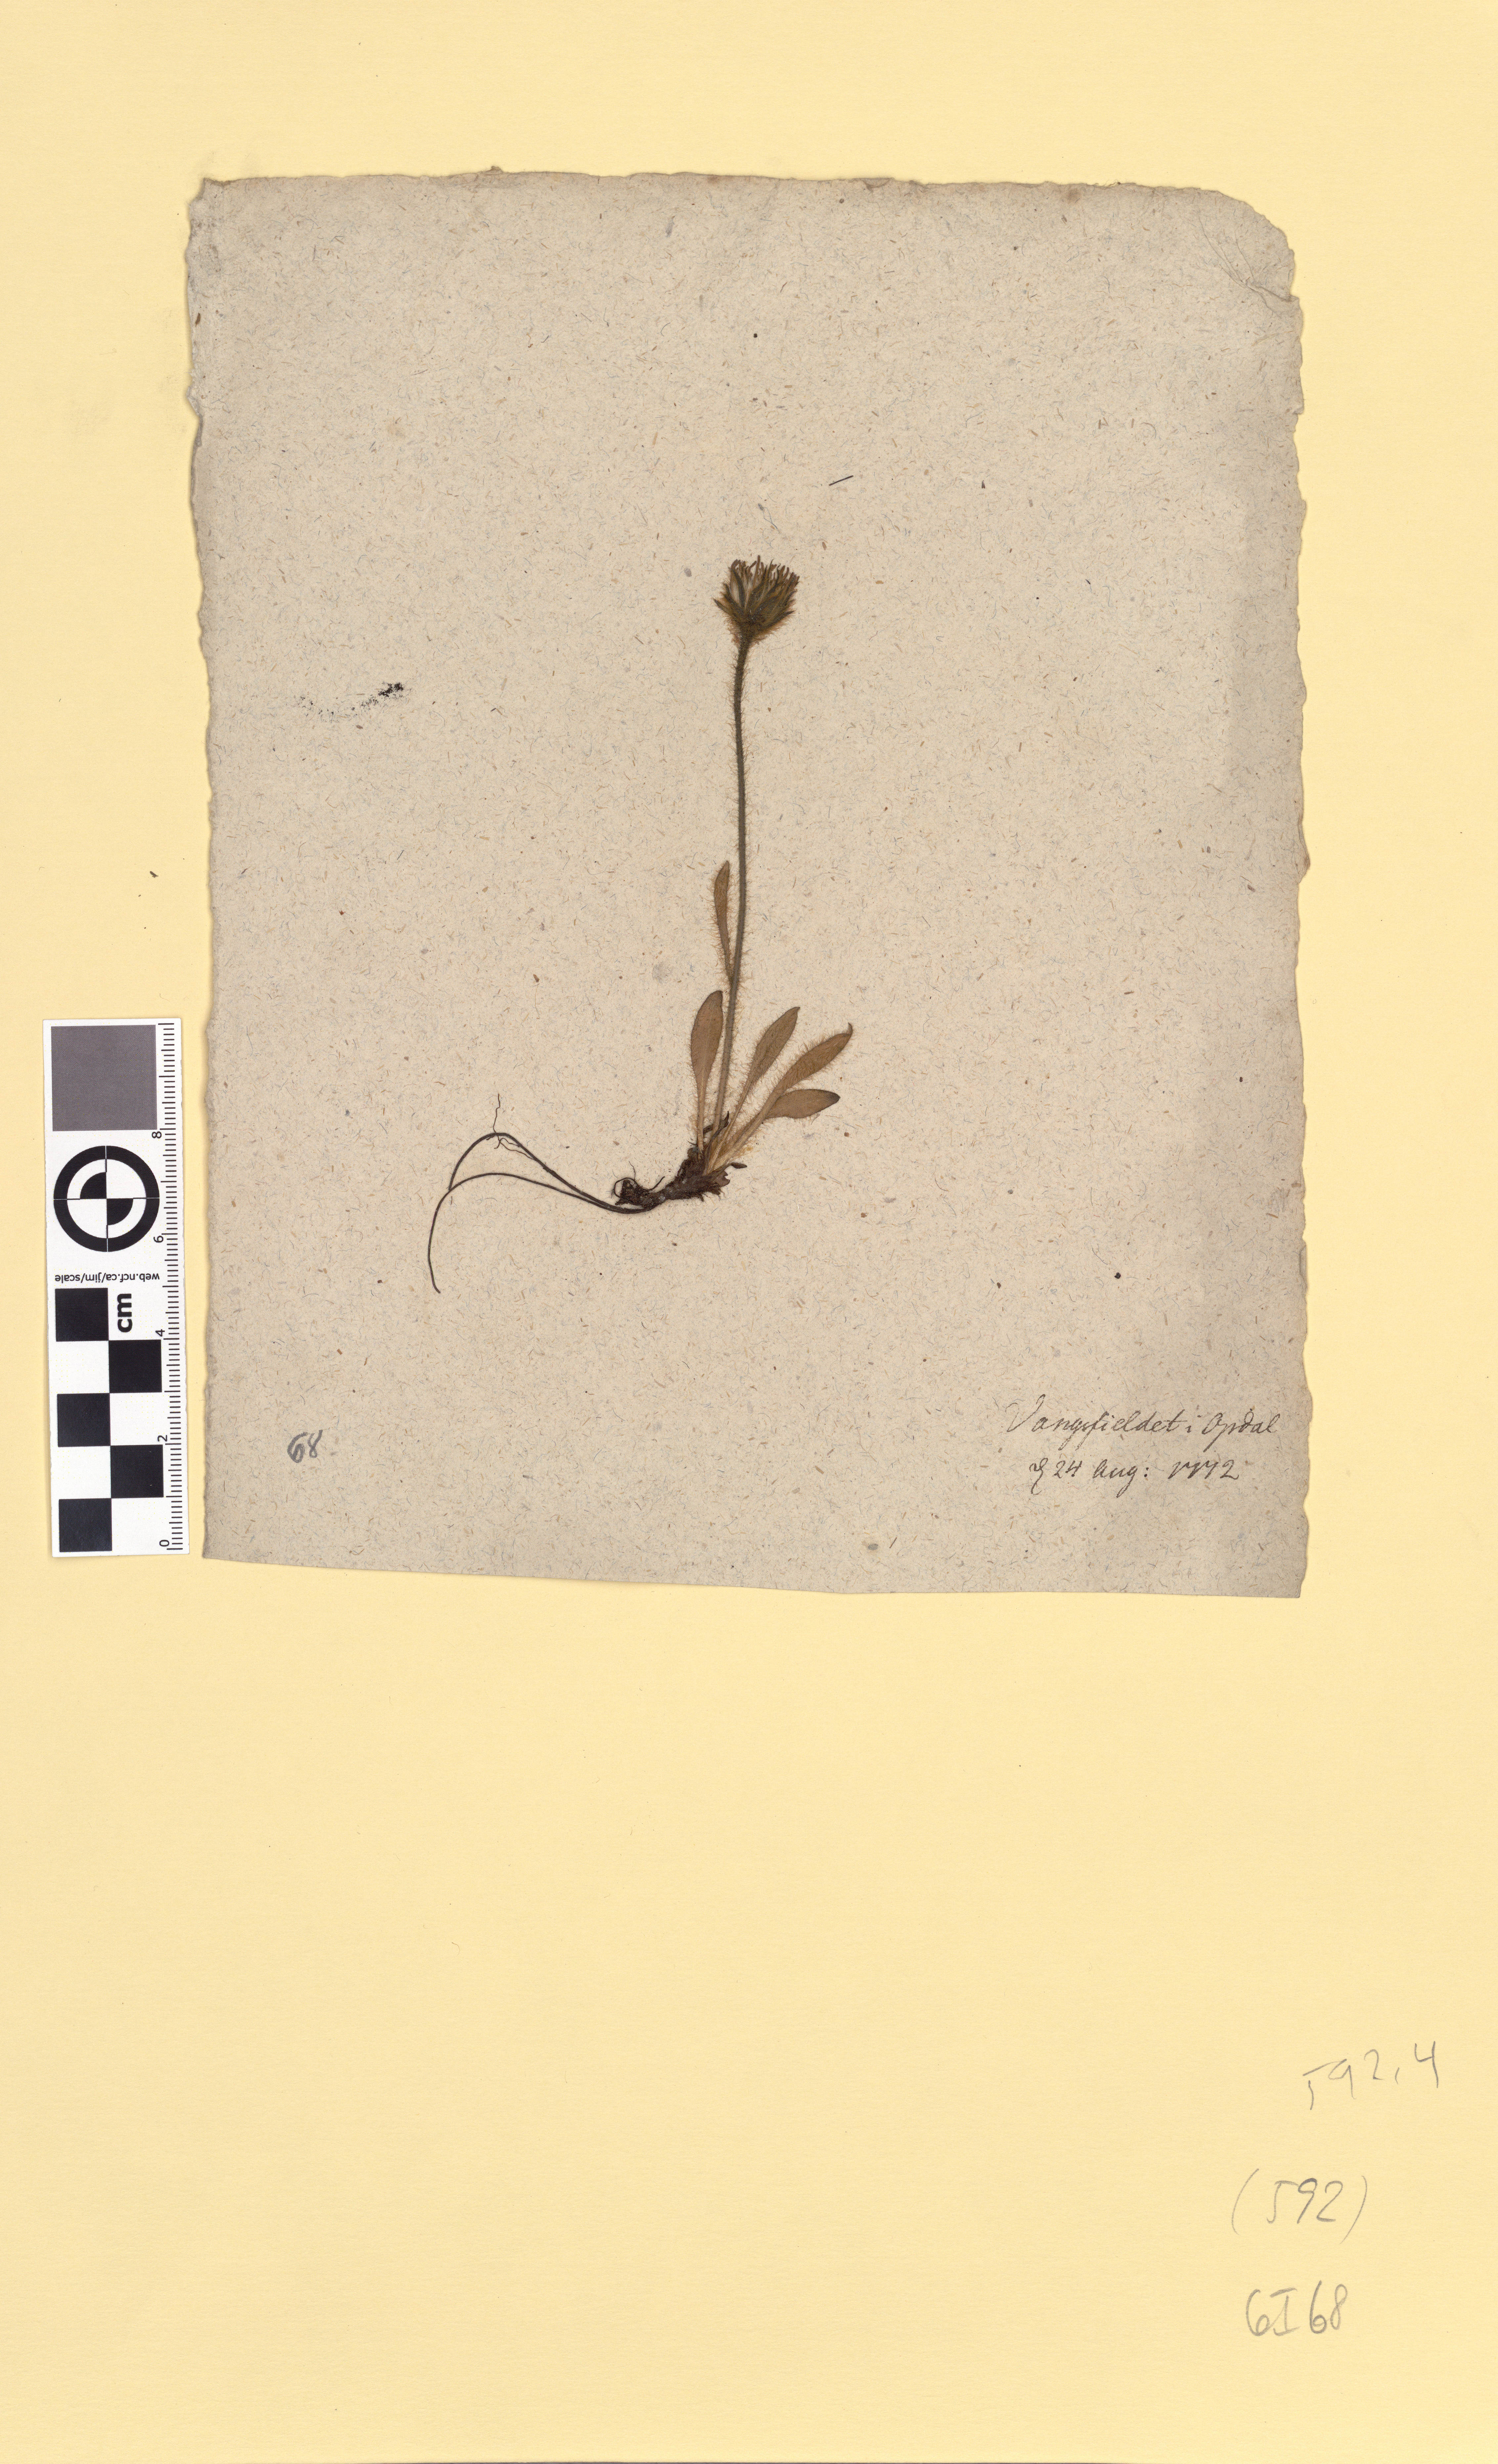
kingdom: Plantae
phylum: Tracheophyta
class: Magnoliopsida
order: Asterales
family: Asteraceae
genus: Hieracium
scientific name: Hieracium
